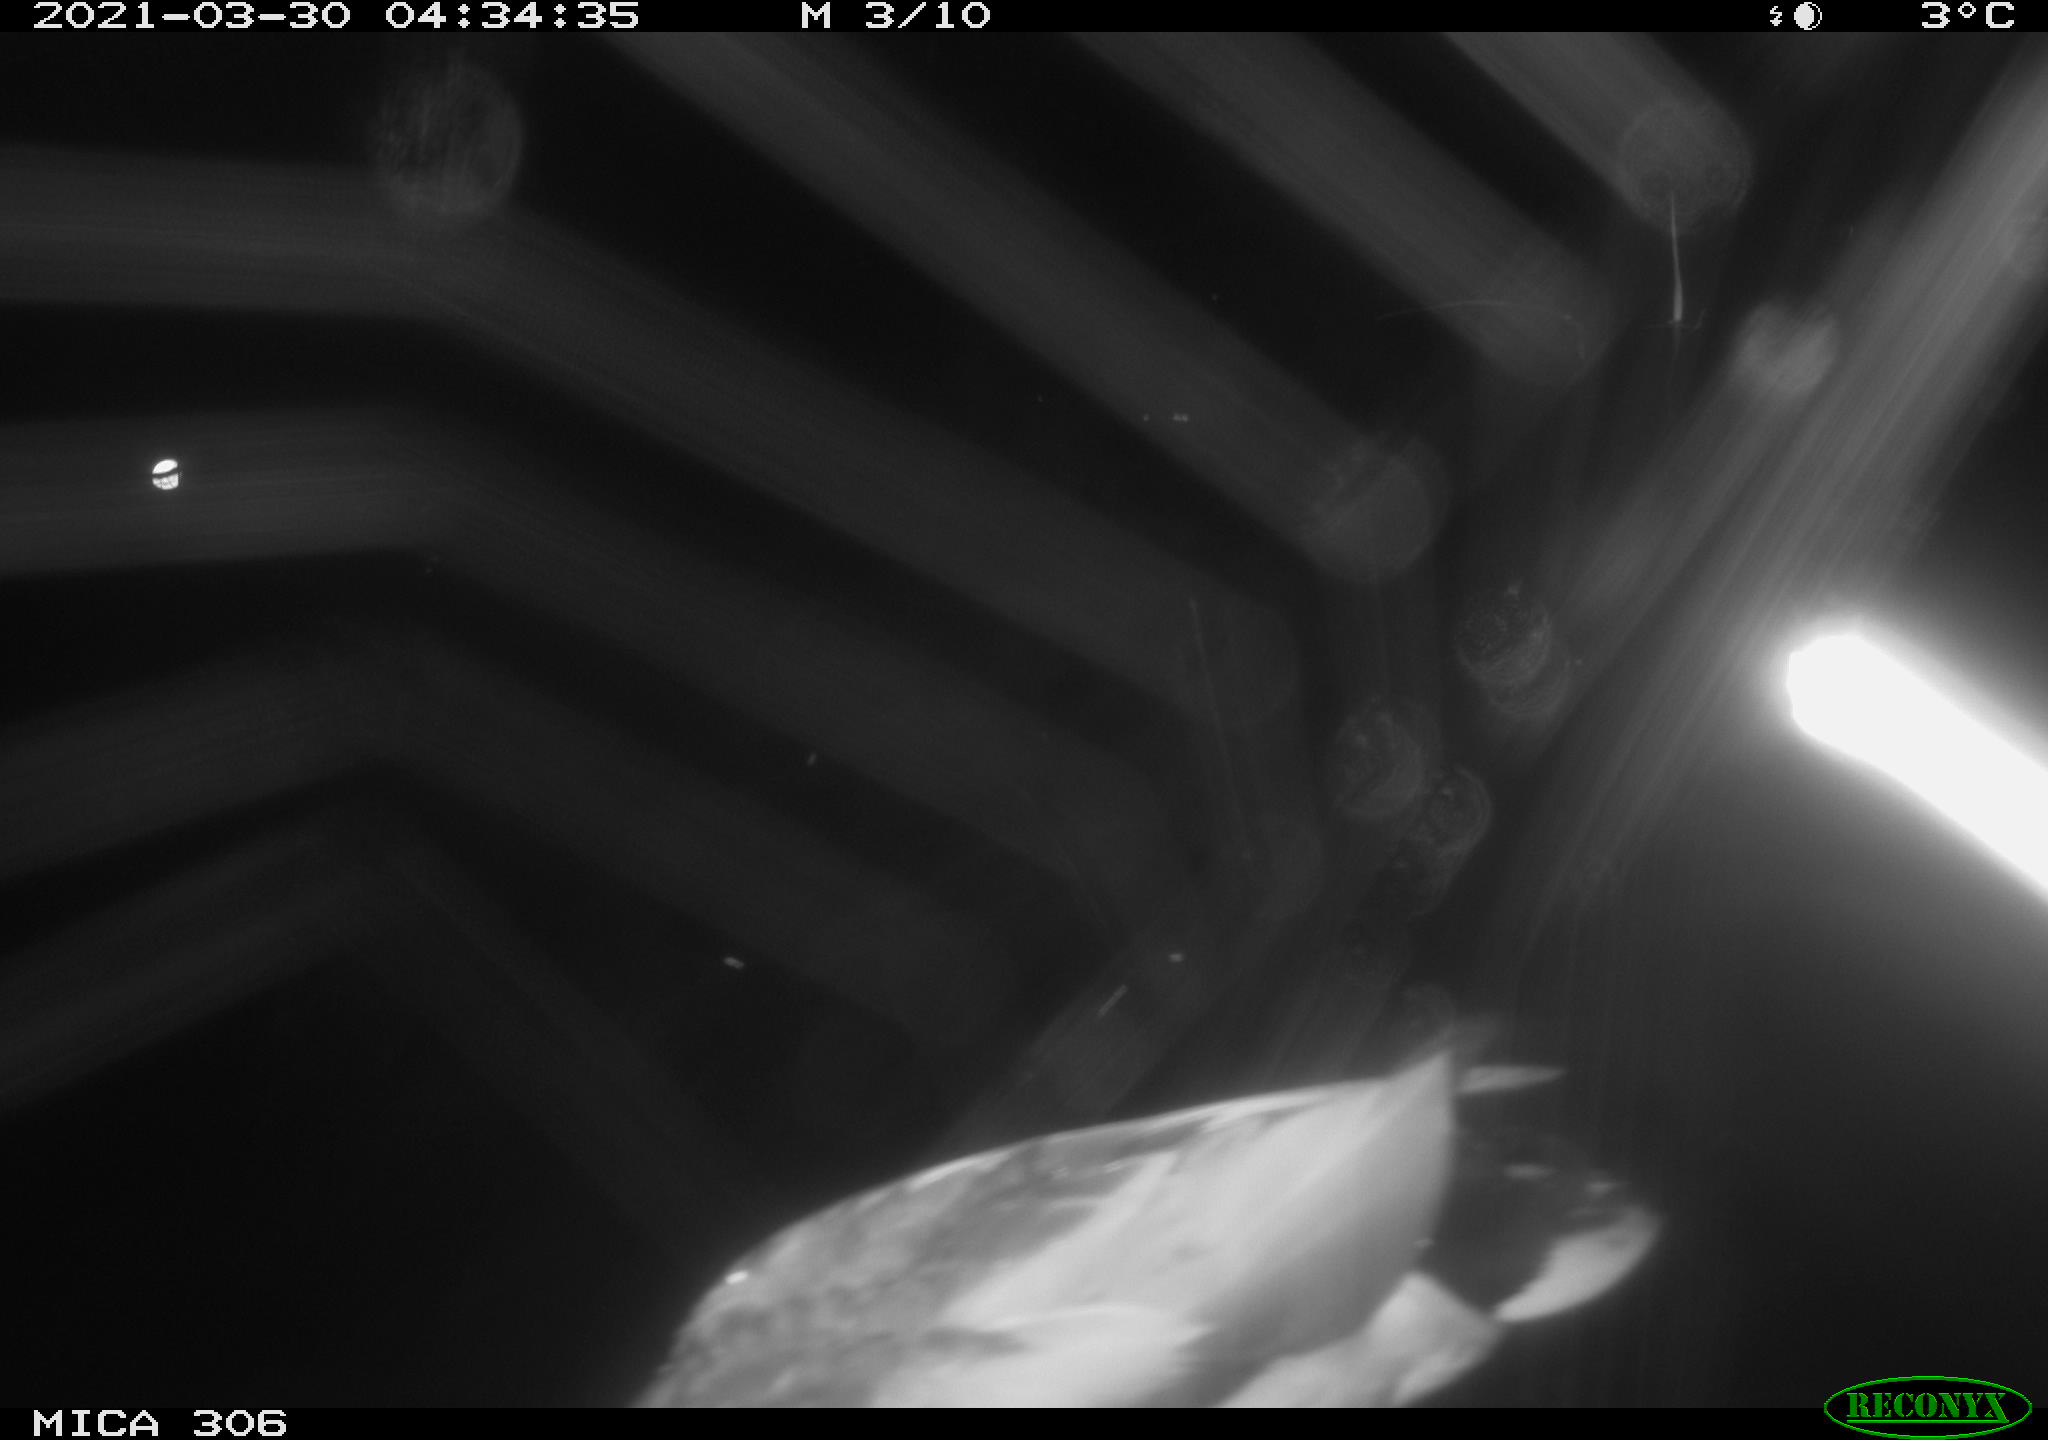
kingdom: Animalia
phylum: Chordata
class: Aves
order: Anseriformes
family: Anatidae
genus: Anas
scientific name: Anas platyrhynchos
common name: Mallard
